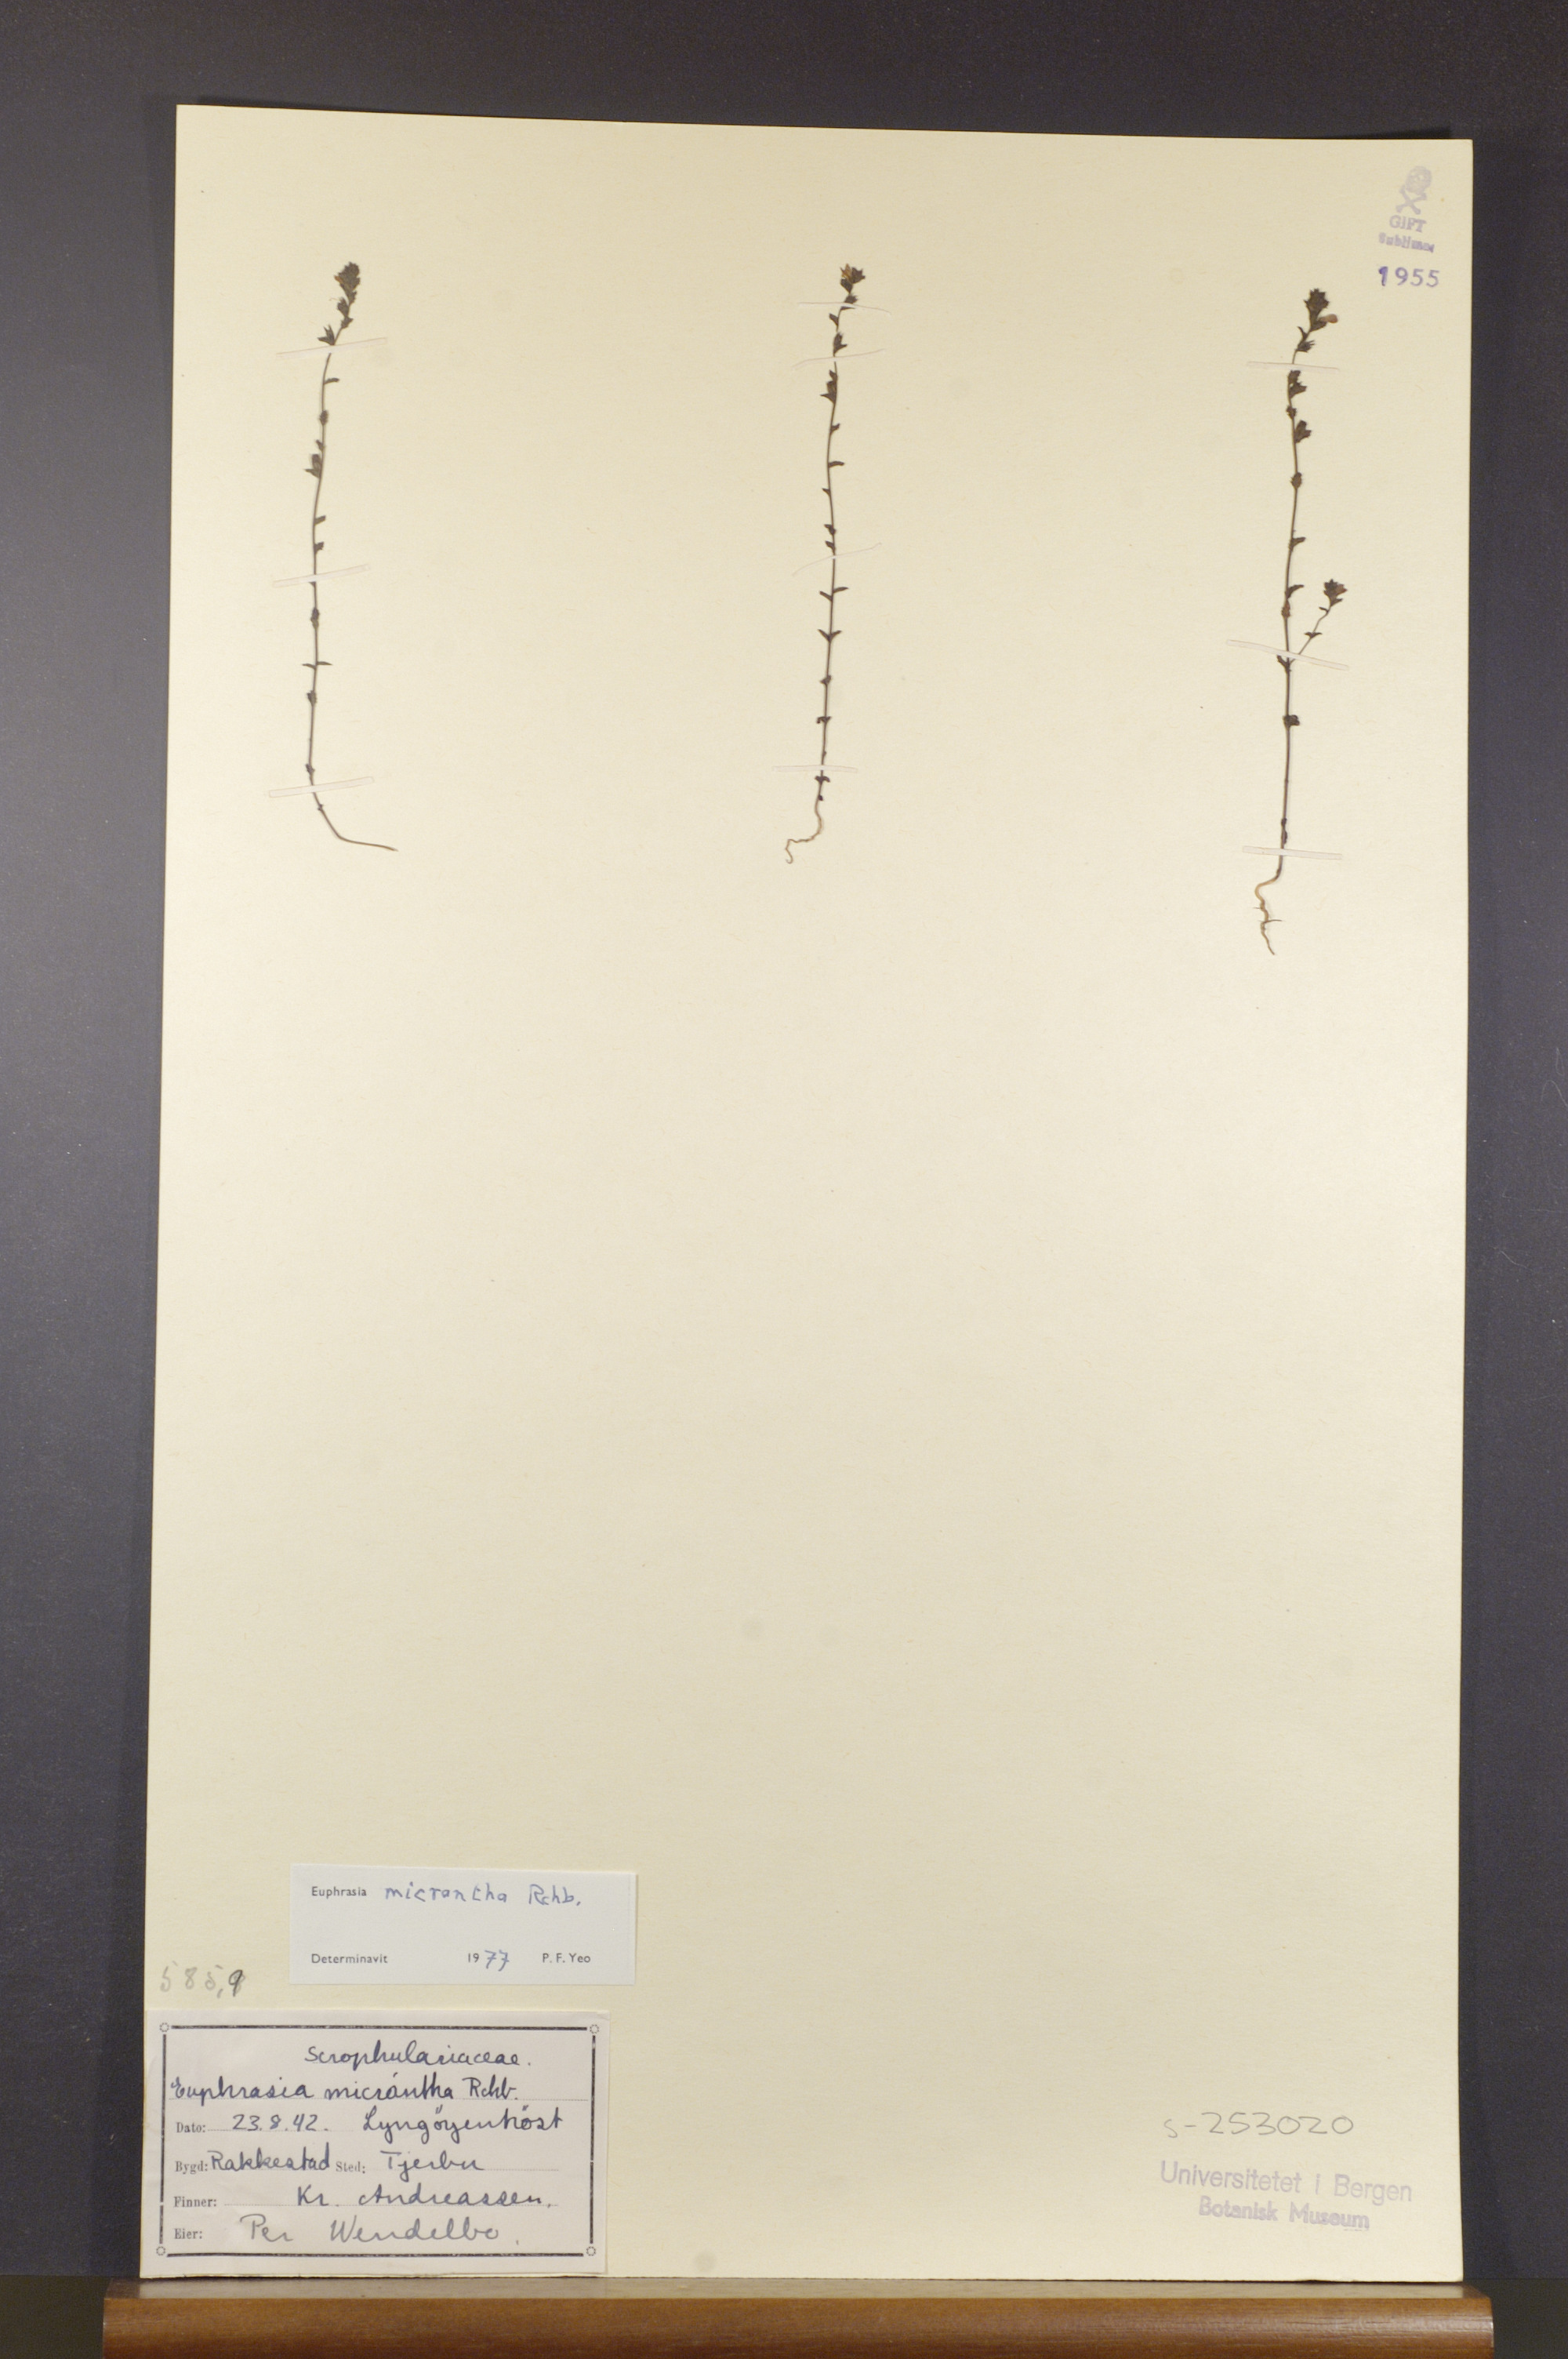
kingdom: Plantae
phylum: Tracheophyta
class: Magnoliopsida
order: Lamiales
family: Orobanchaceae
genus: Euphrasia
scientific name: Euphrasia micrantha
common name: Northern eyebright
